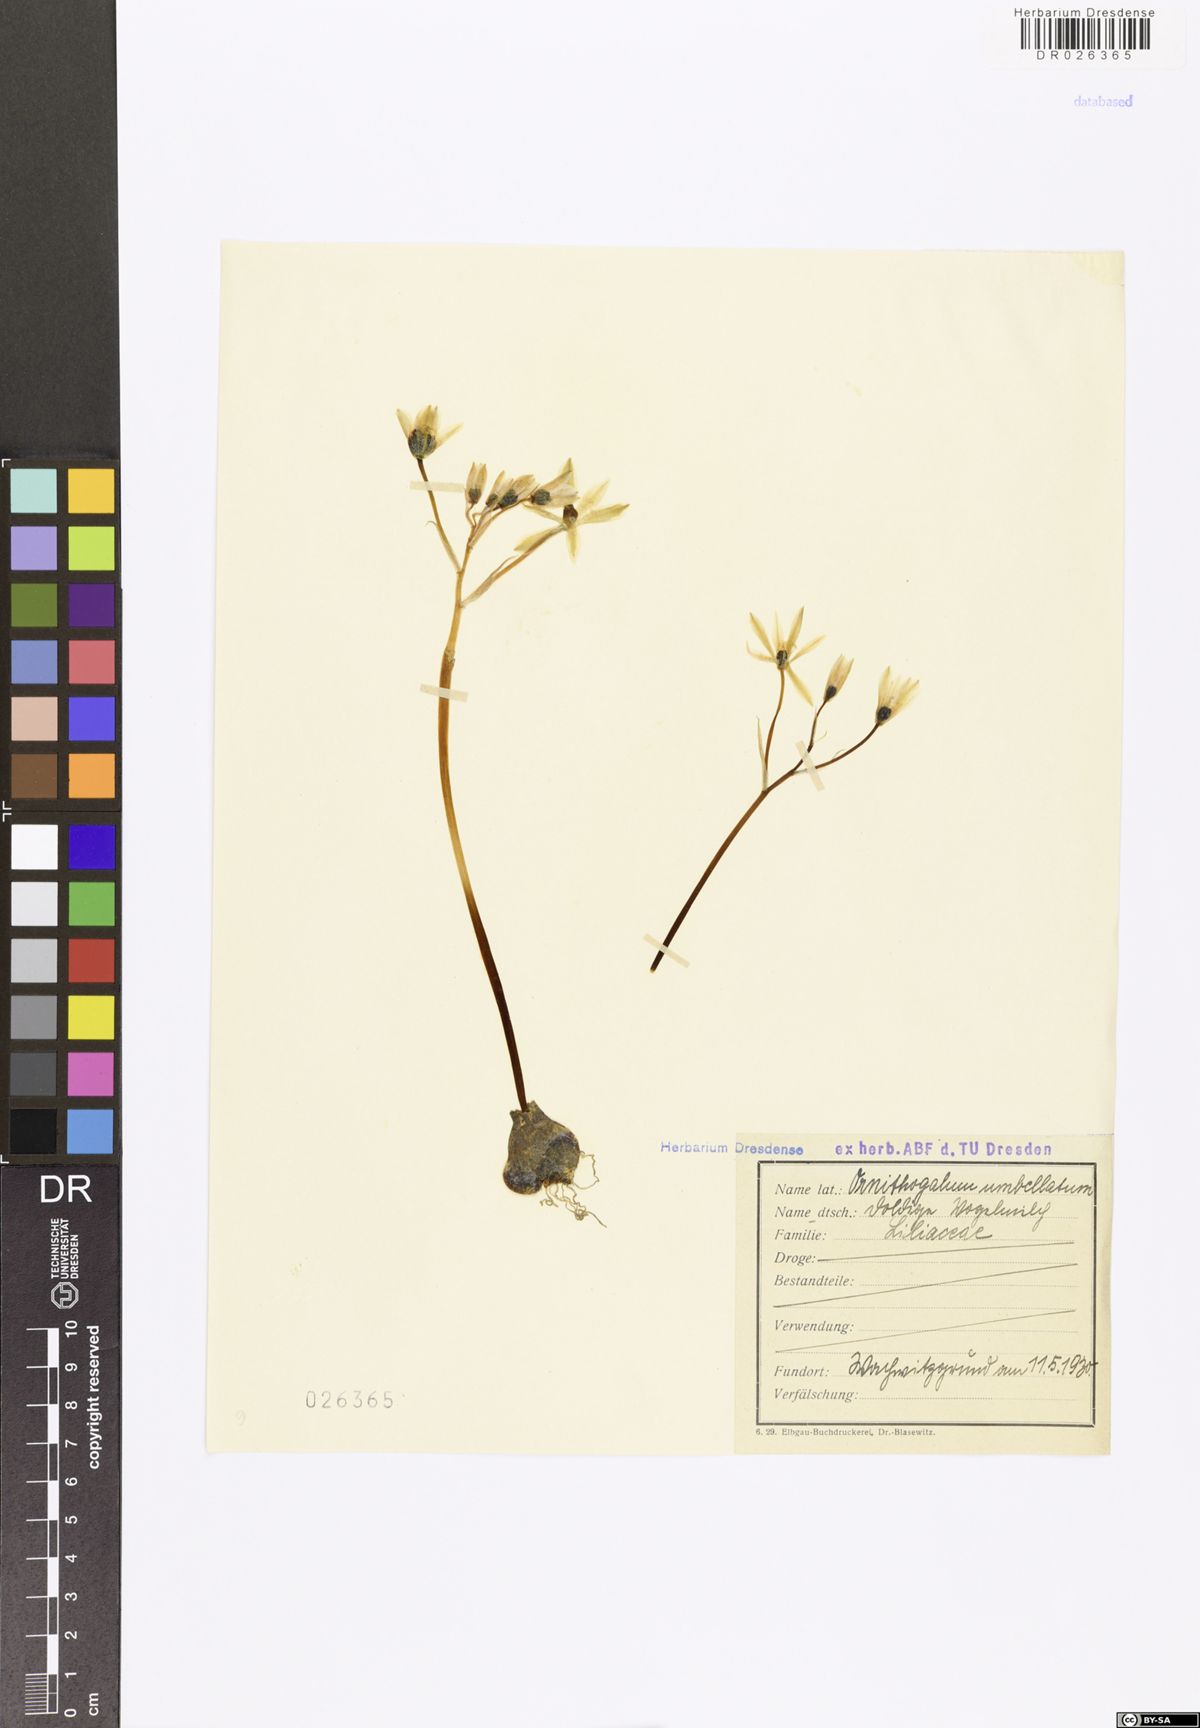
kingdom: Plantae
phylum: Tracheophyta
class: Liliopsida
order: Asparagales
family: Asparagaceae
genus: Ornithogalum
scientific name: Ornithogalum umbellatum
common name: Garden star-of-bethlehem
